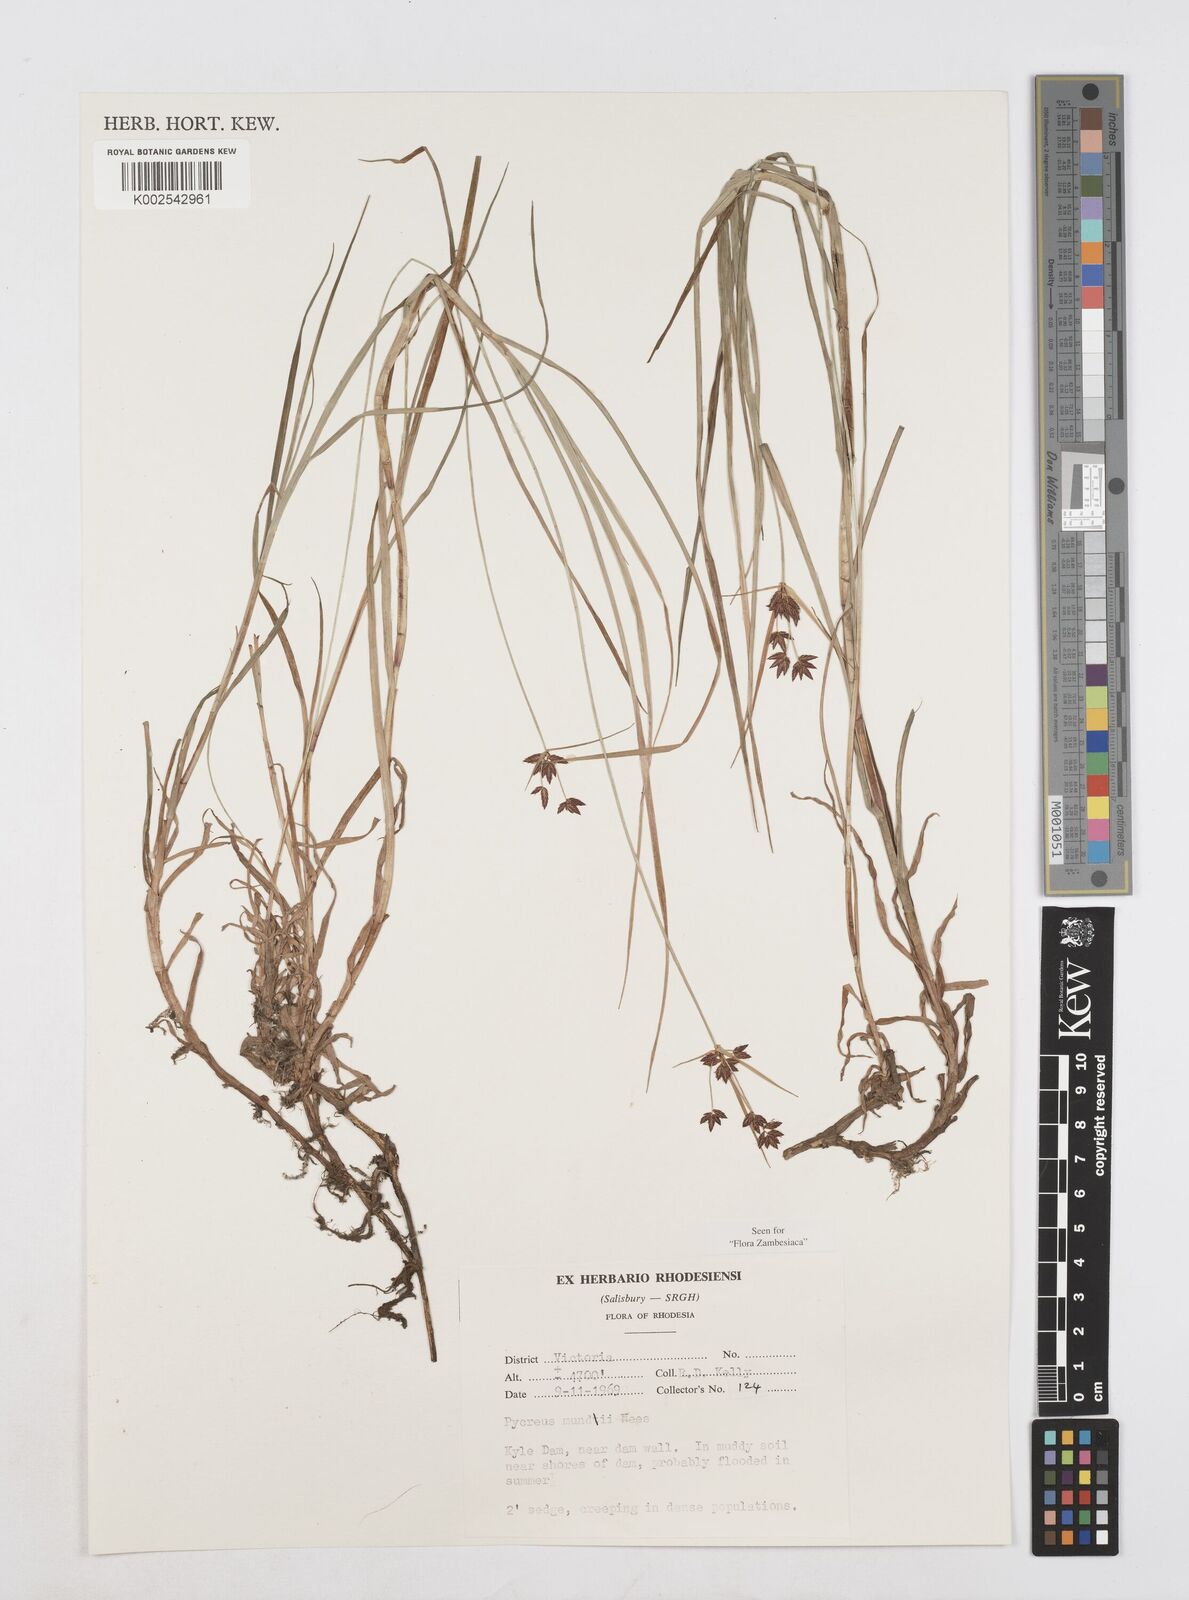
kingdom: Plantae
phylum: Tracheophyta
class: Liliopsida
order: Poales
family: Cyperaceae
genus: Cyperus
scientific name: Cyperus mundii
